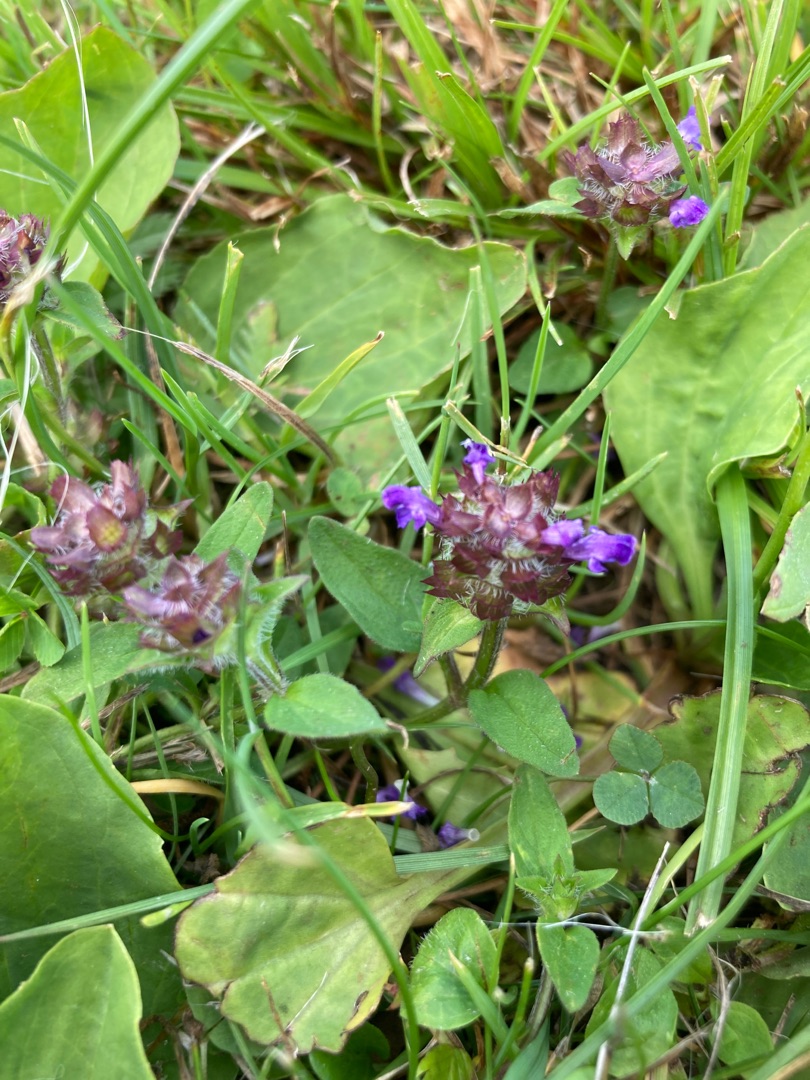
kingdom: Plantae
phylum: Tracheophyta
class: Magnoliopsida
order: Lamiales
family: Lamiaceae
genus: Prunella
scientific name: Prunella vulgaris
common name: Almindelig brunelle
